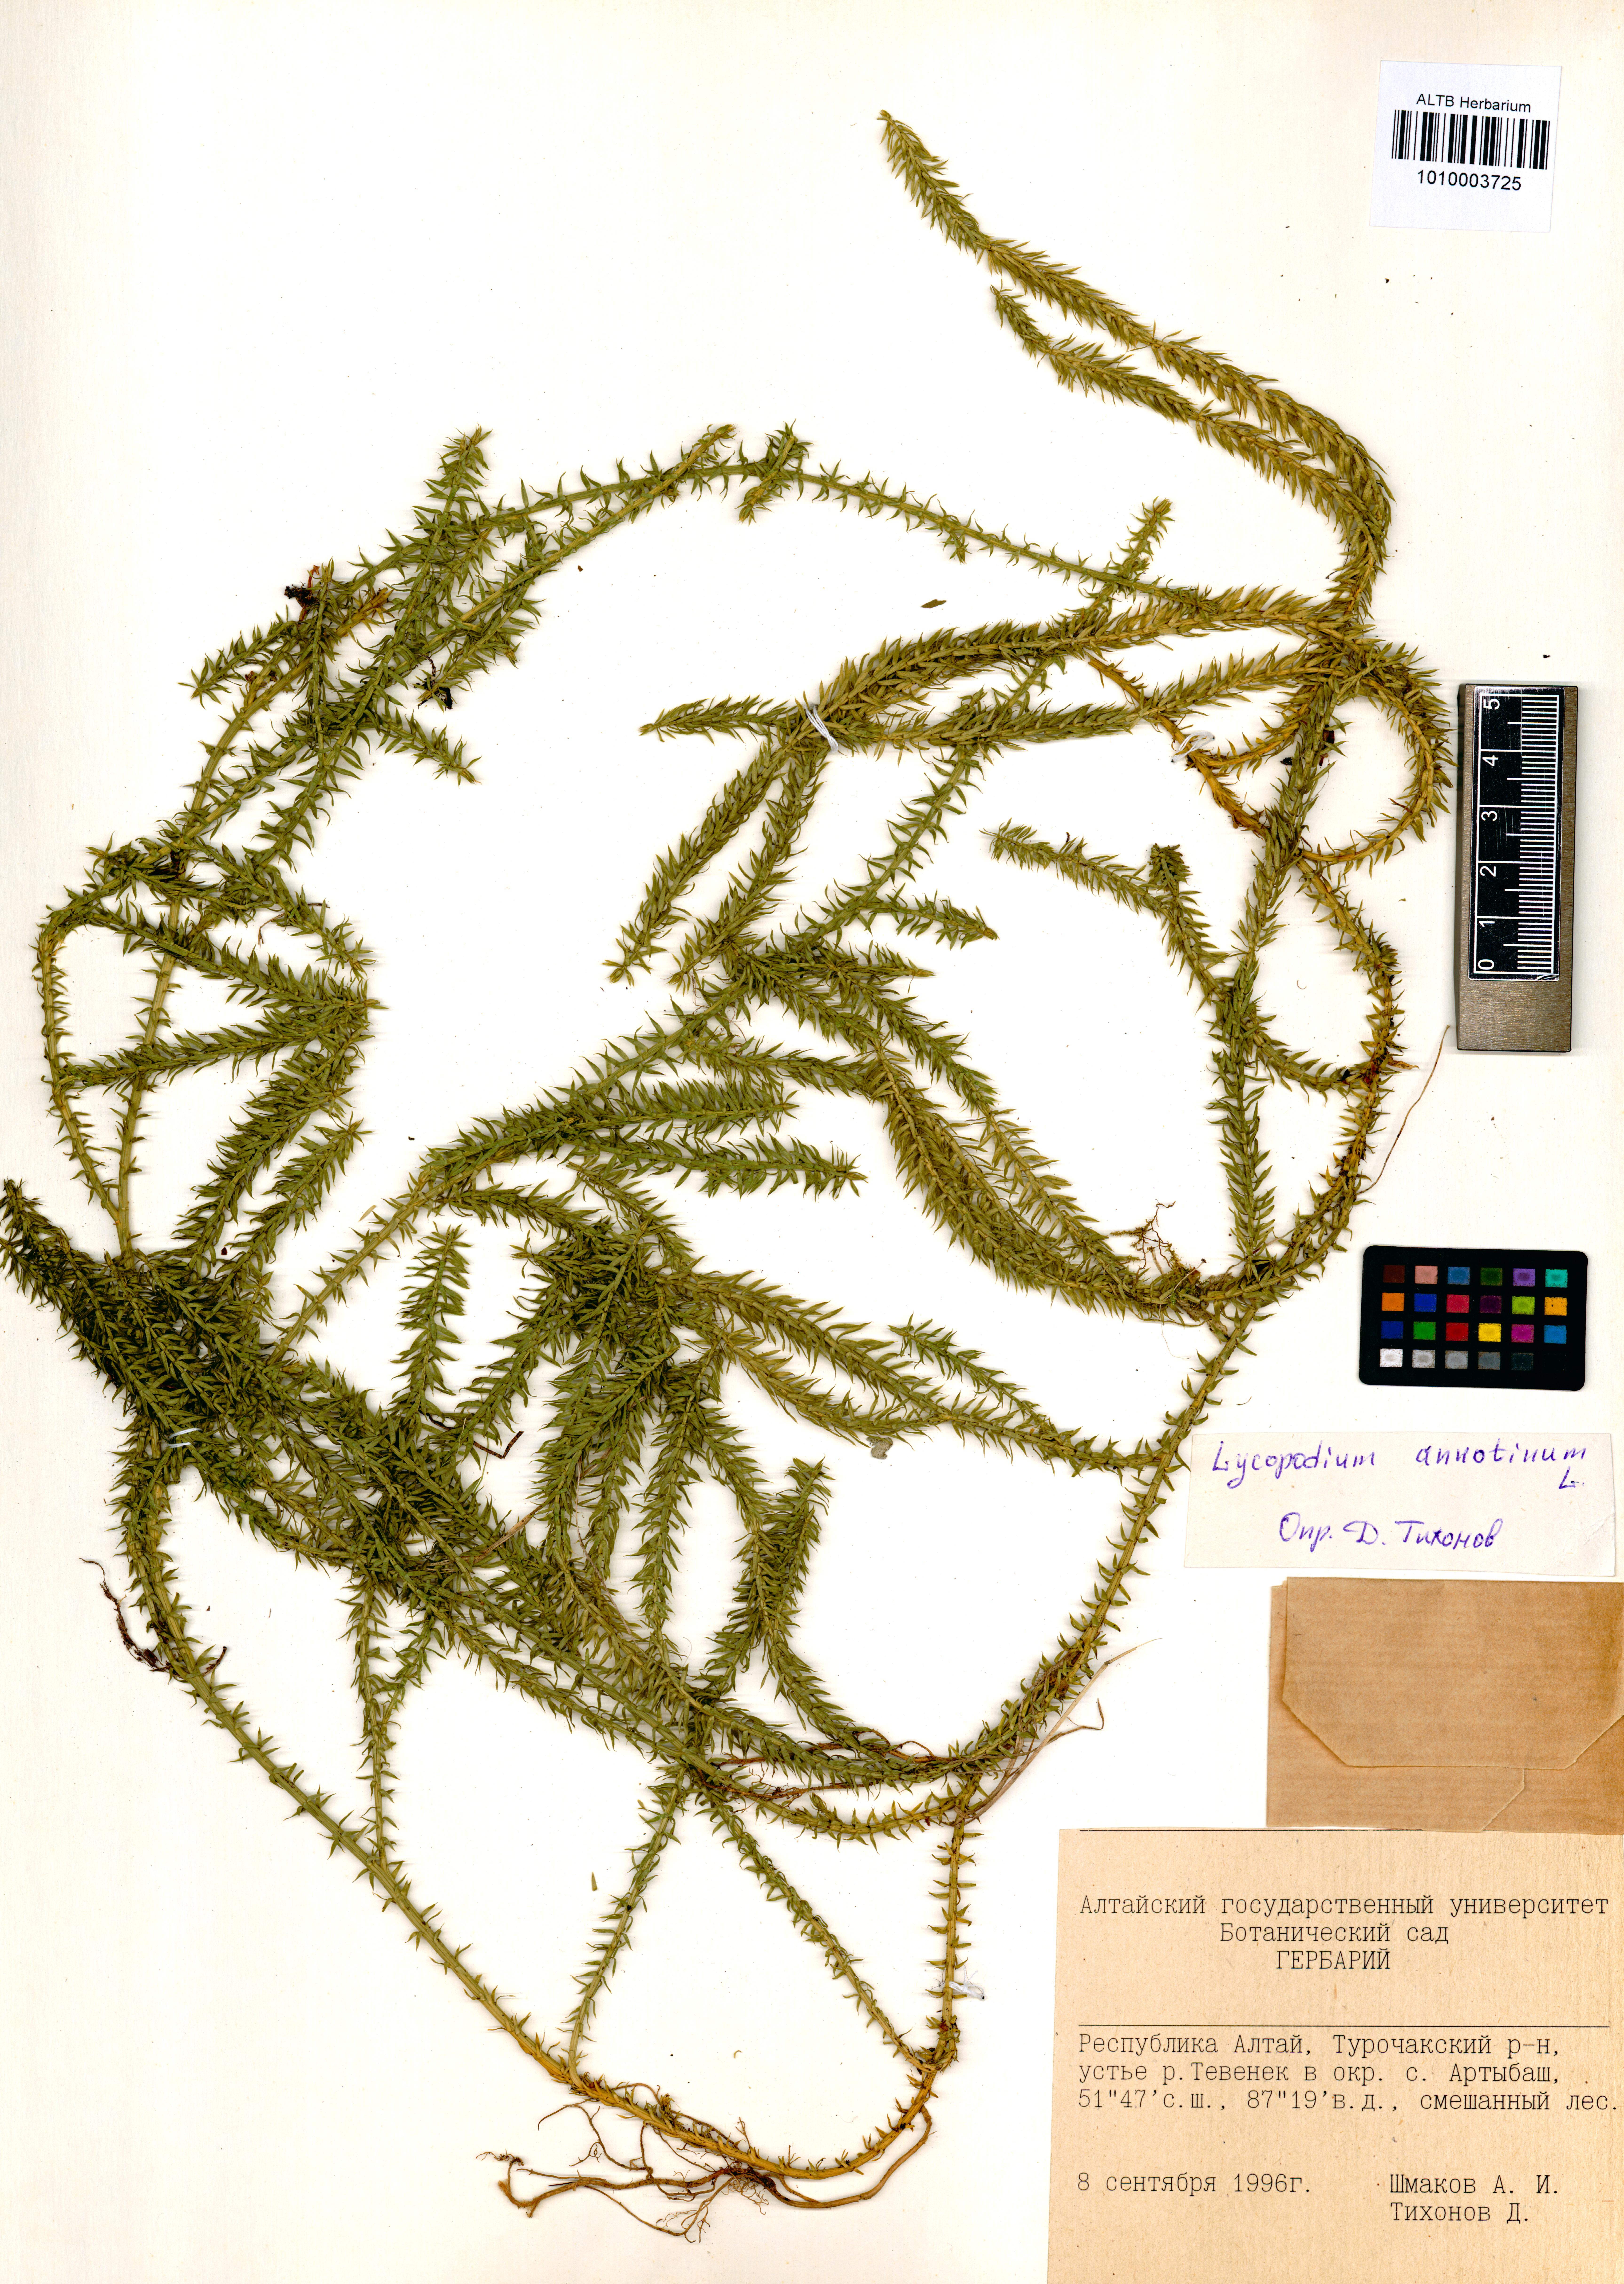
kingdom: Plantae
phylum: Tracheophyta
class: Lycopodiopsida
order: Lycopodiales
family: Lycopodiaceae
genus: Spinulum
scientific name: Spinulum annotinum
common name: Interrupted club-moss
